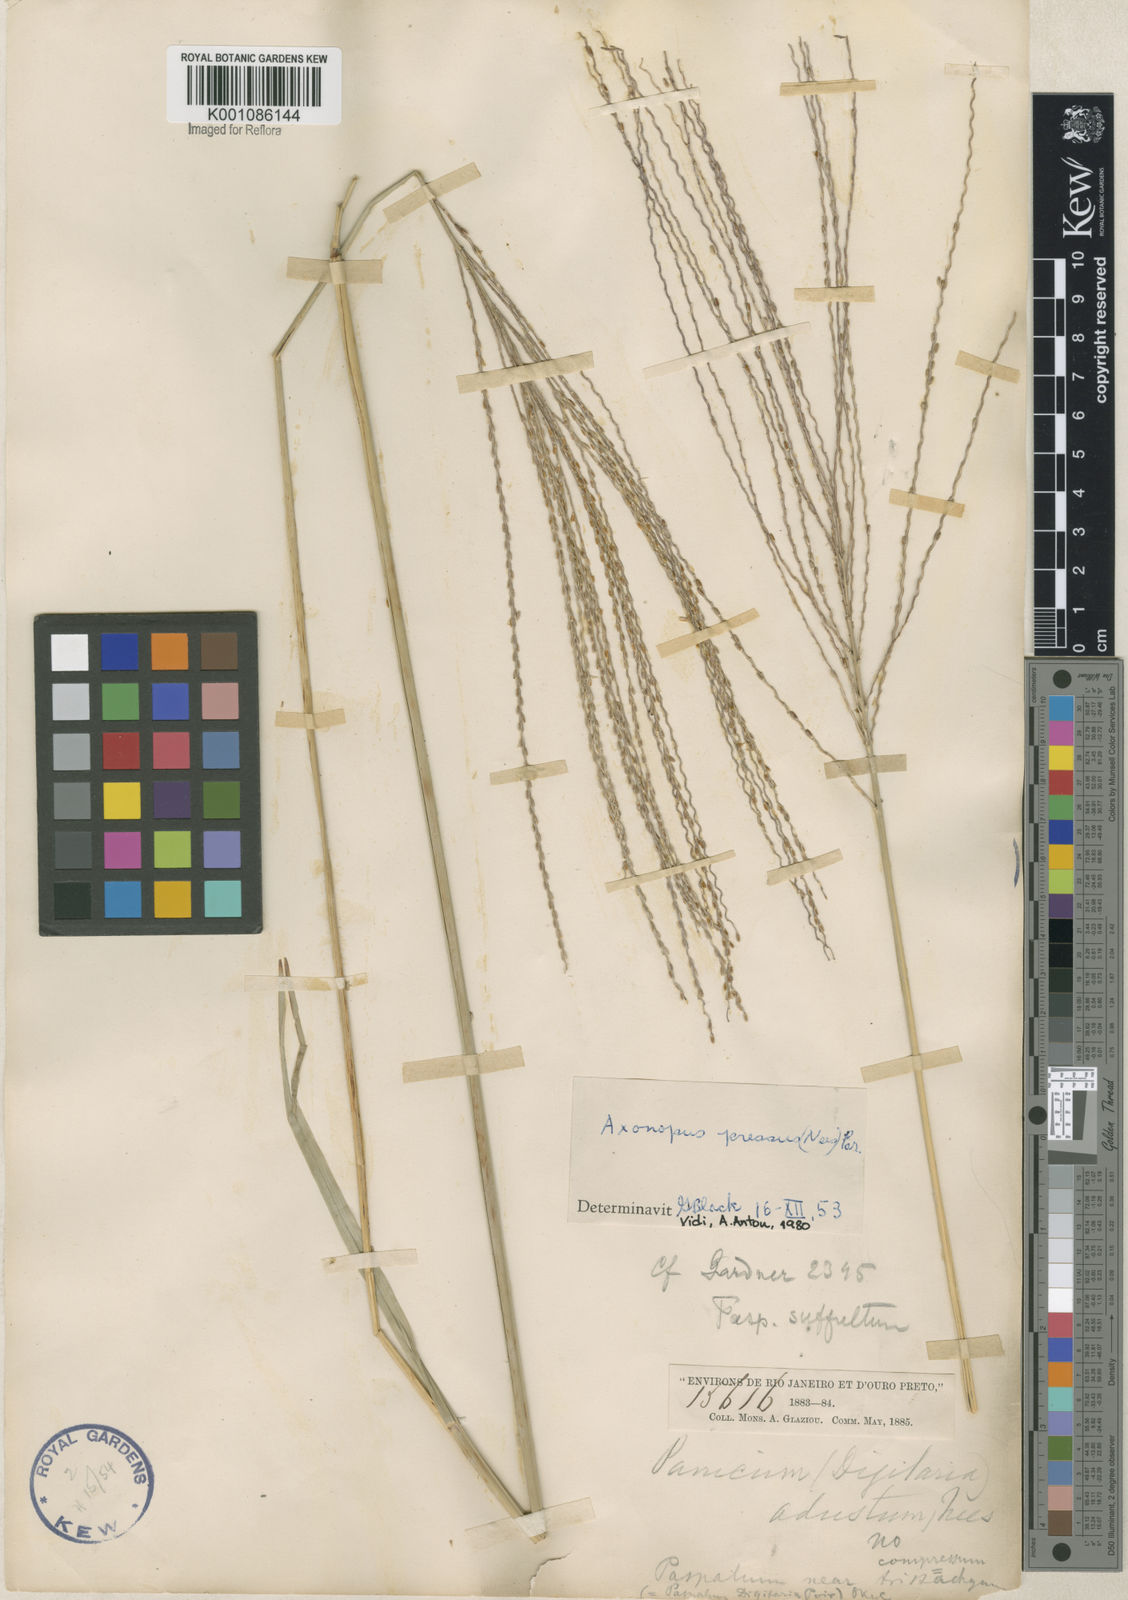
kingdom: Plantae
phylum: Tracheophyta
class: Liliopsida
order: Poales
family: Poaceae
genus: Axonopus
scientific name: Axonopus pressus
